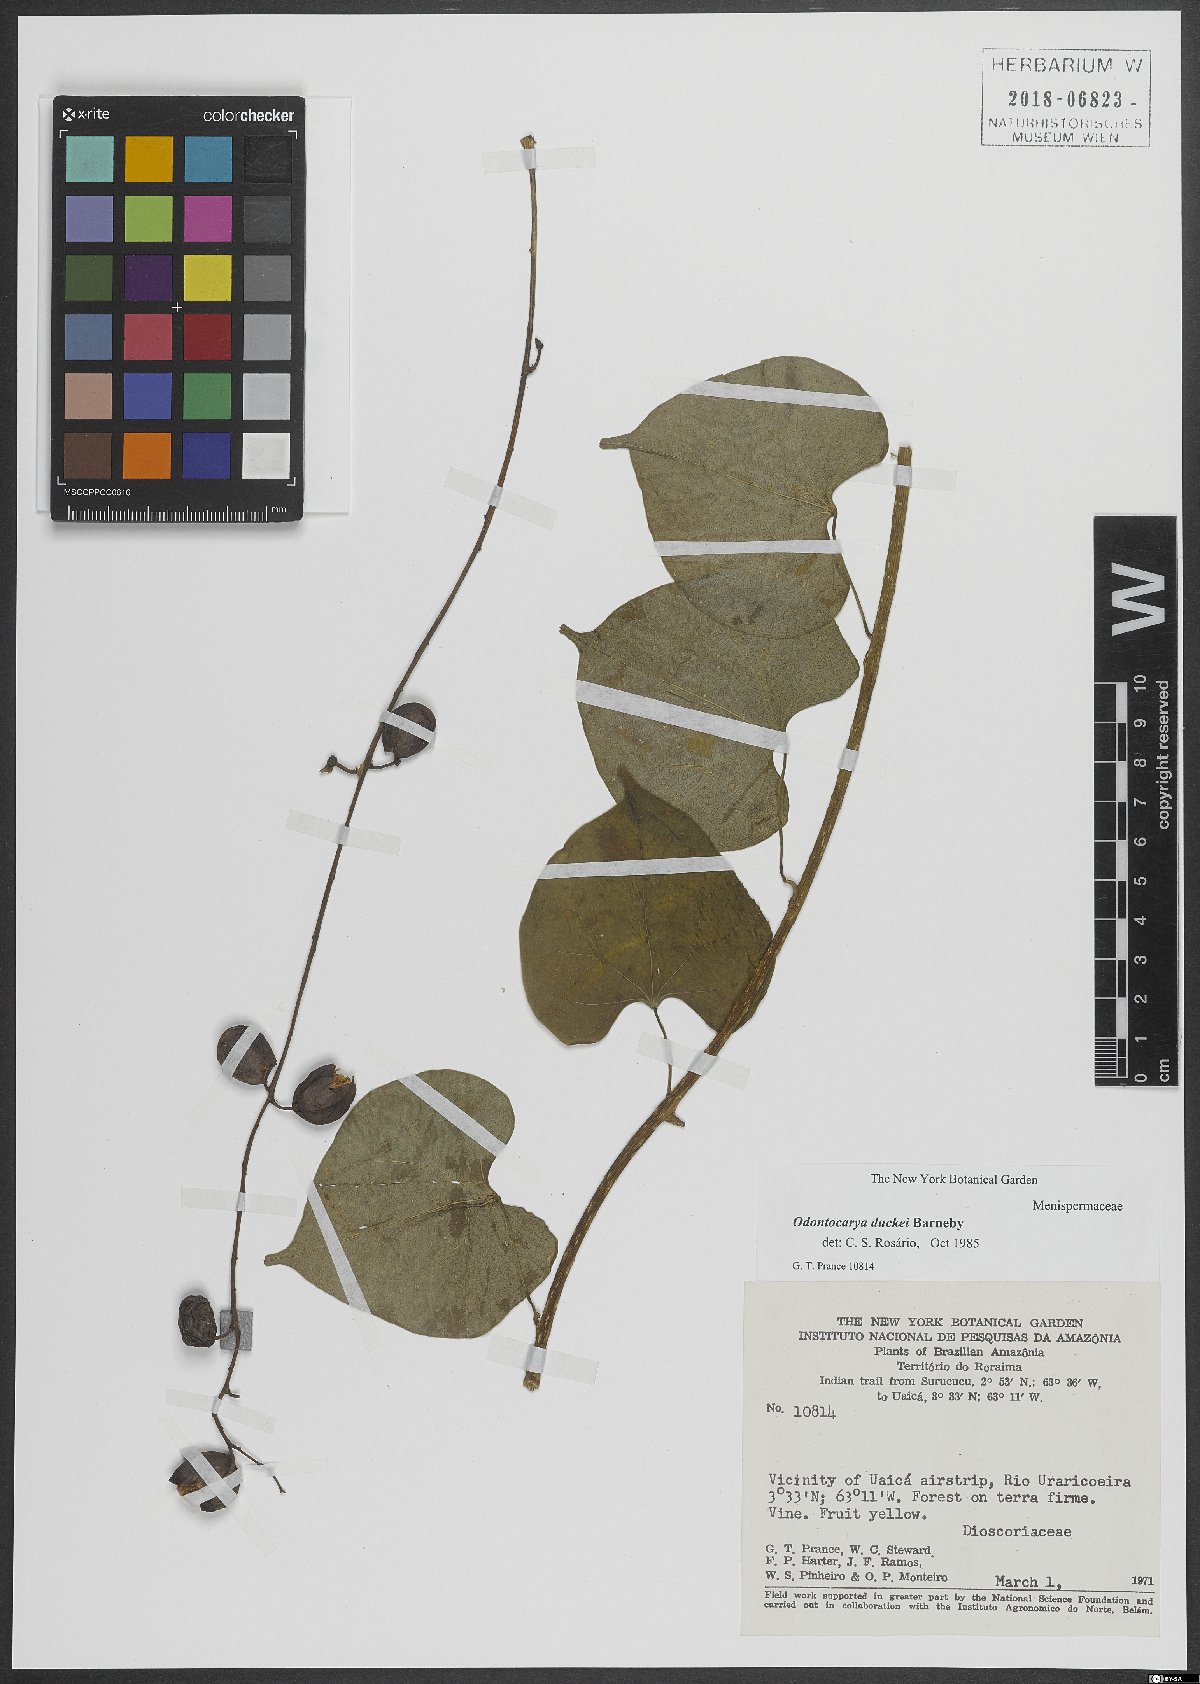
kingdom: Plantae
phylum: Tracheophyta
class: Magnoliopsida
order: Ranunculales
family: Menispermaceae
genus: Odontocarya
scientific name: Odontocarya duckei
